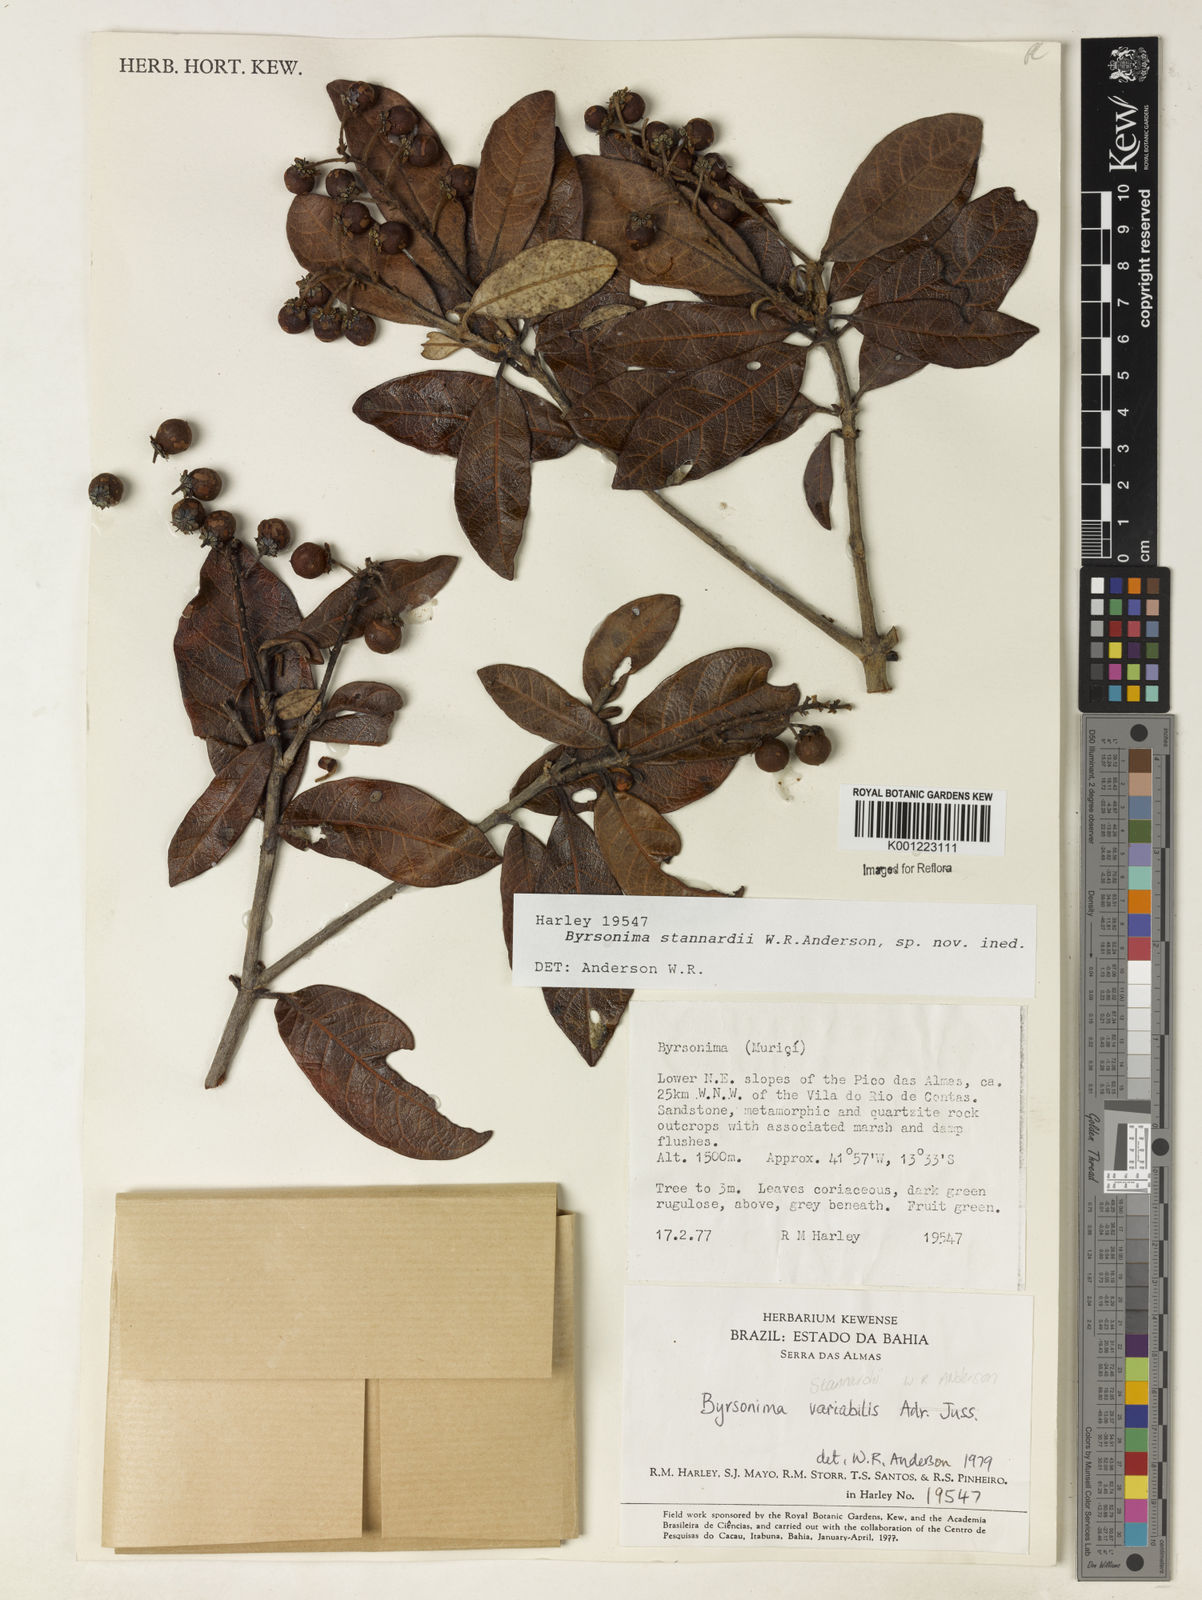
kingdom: Plantae
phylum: Tracheophyta
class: Magnoliopsida
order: Malpighiales
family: Malpighiaceae
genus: Byrsonima
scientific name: Byrsonima stannardii
